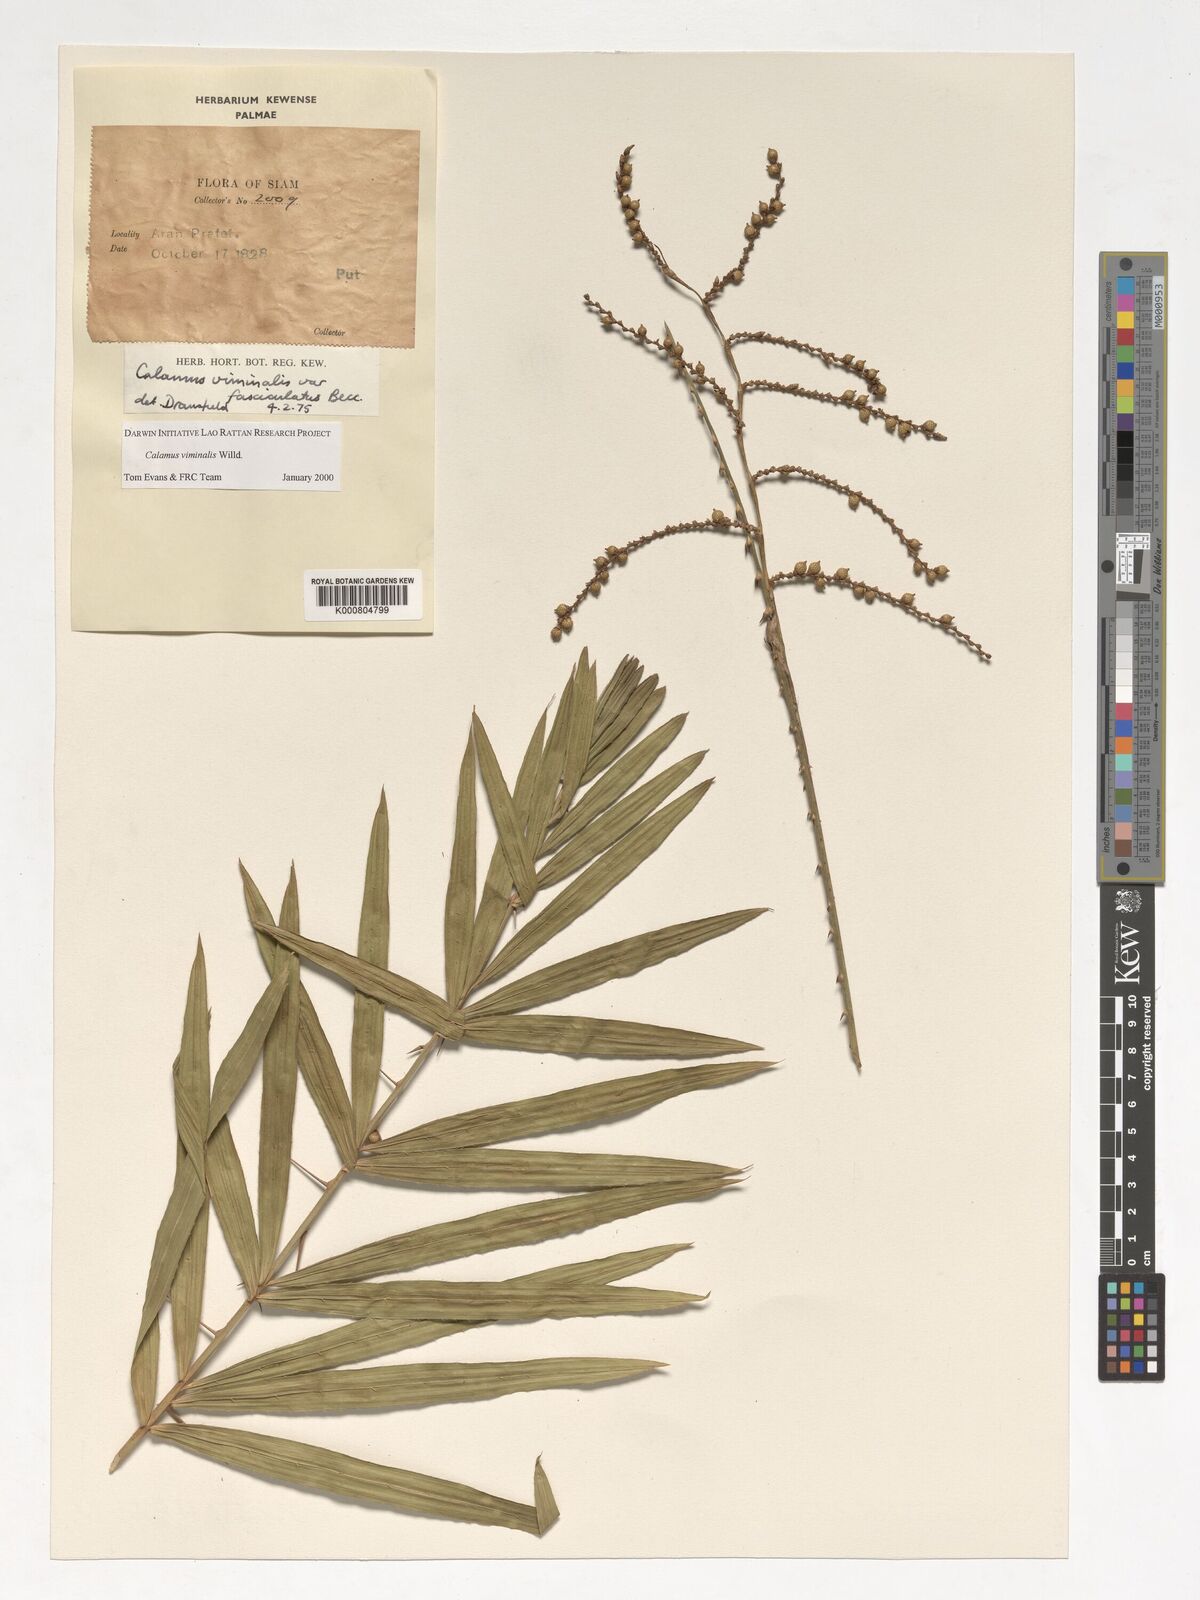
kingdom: Plantae
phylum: Tracheophyta
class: Liliopsida
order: Arecales
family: Arecaceae
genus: Calamus
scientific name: Calamus viminalis
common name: Osier-like rattan palm
